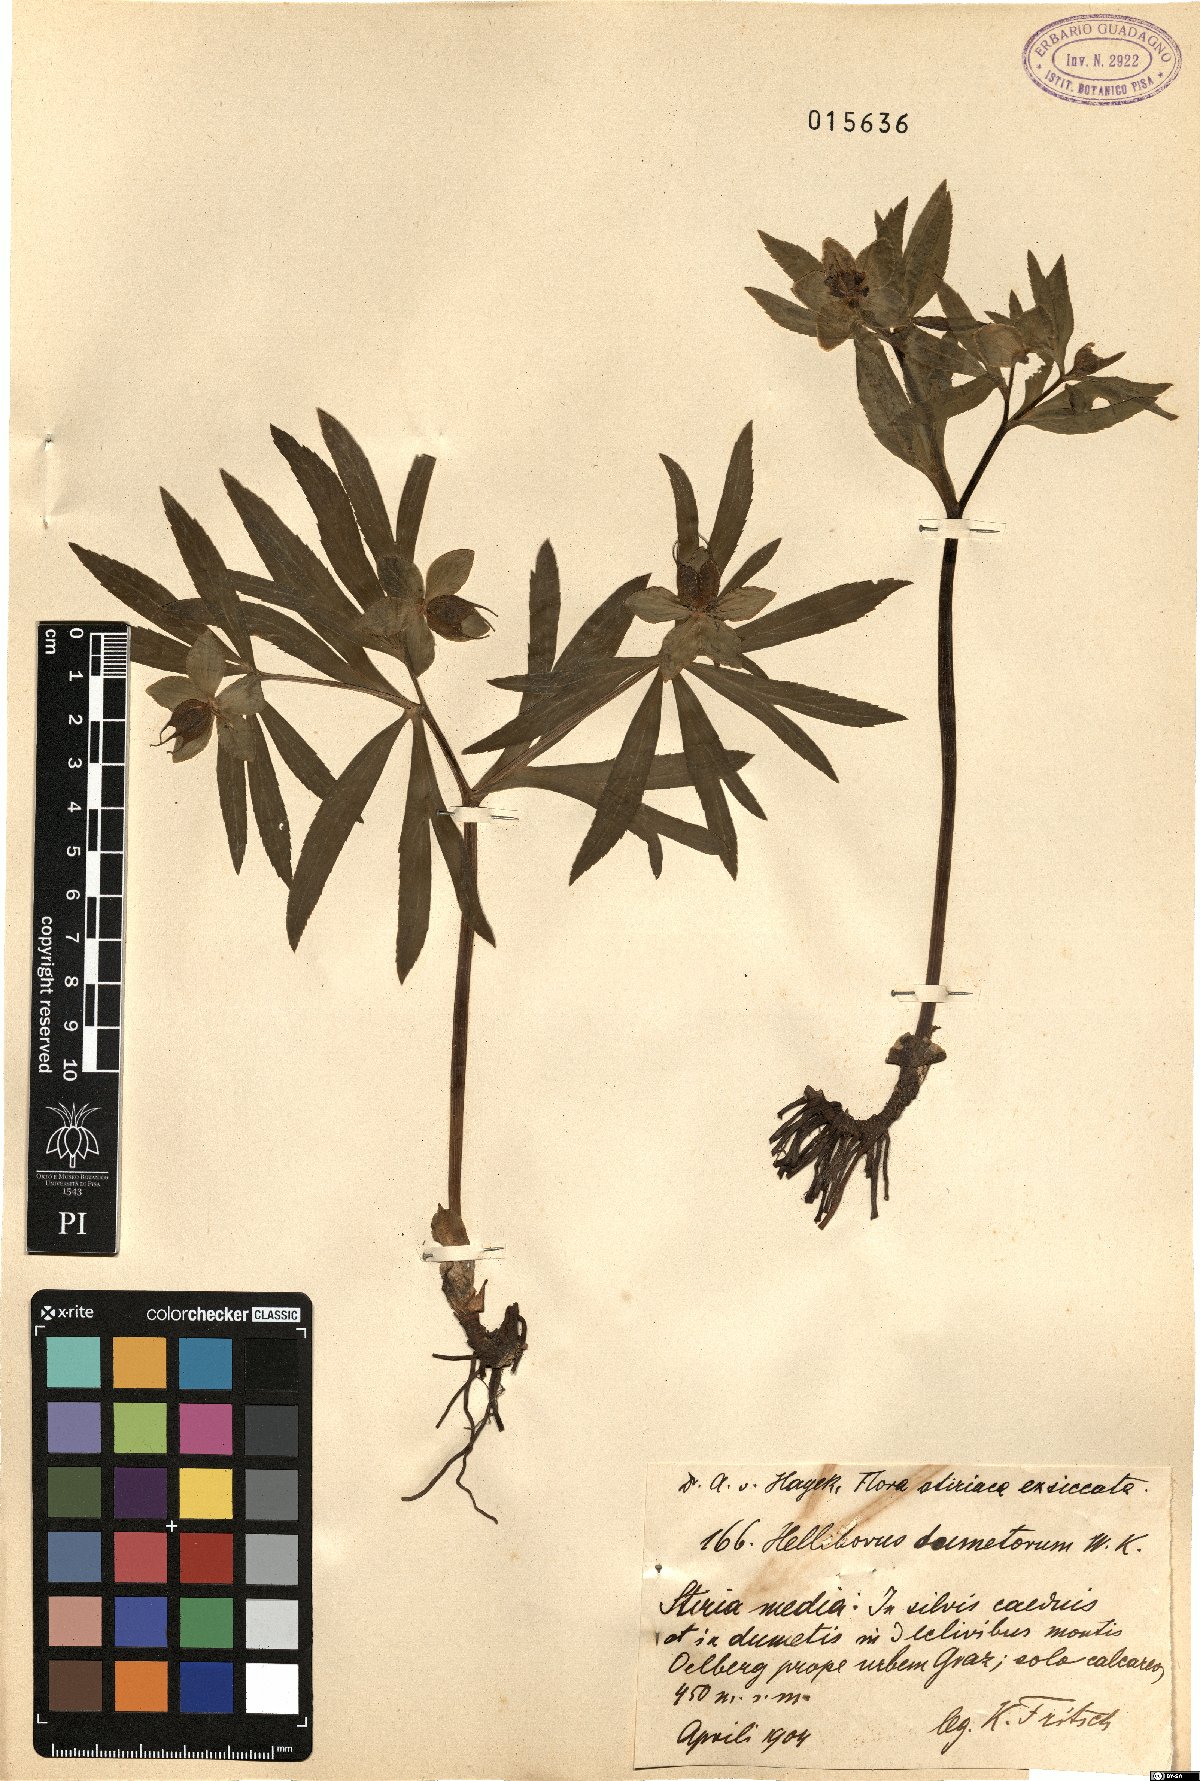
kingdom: Plantae
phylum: Tracheophyta
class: Magnoliopsida
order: Ranunculales
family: Ranunculaceae
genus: Helleborus
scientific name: Helleborus dumetorum
